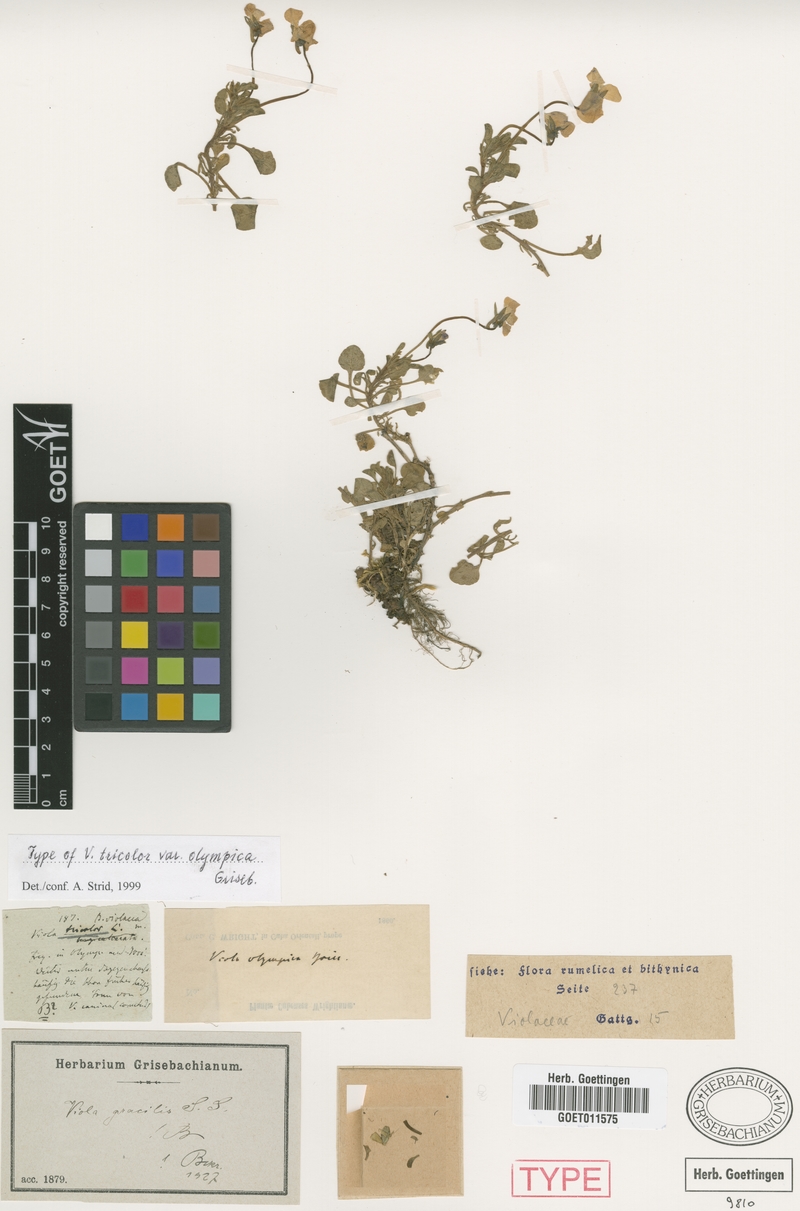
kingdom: Plantae
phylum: Tracheophyta
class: Magnoliopsida
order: Malpighiales
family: Violaceae
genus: Viola
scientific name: Viola gracilis
